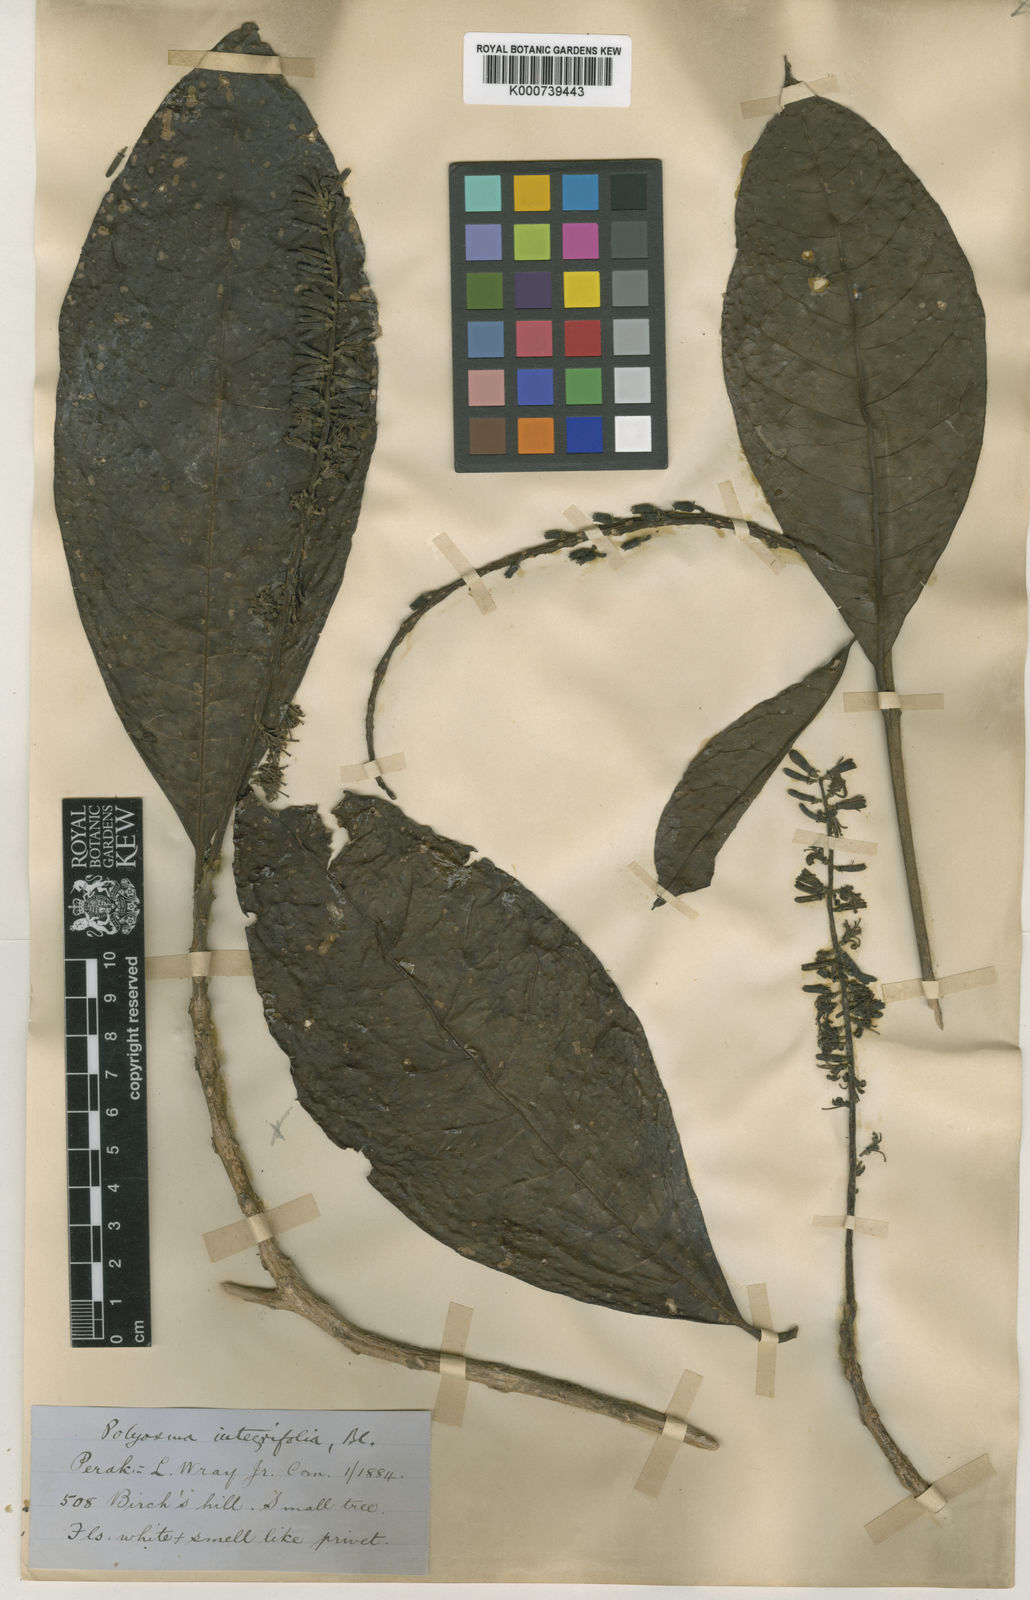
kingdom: Plantae
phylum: Tracheophyta
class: Magnoliopsida
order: Escalloniales
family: Escalloniaceae
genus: Polyosma
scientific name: Polyosma integrifolia
